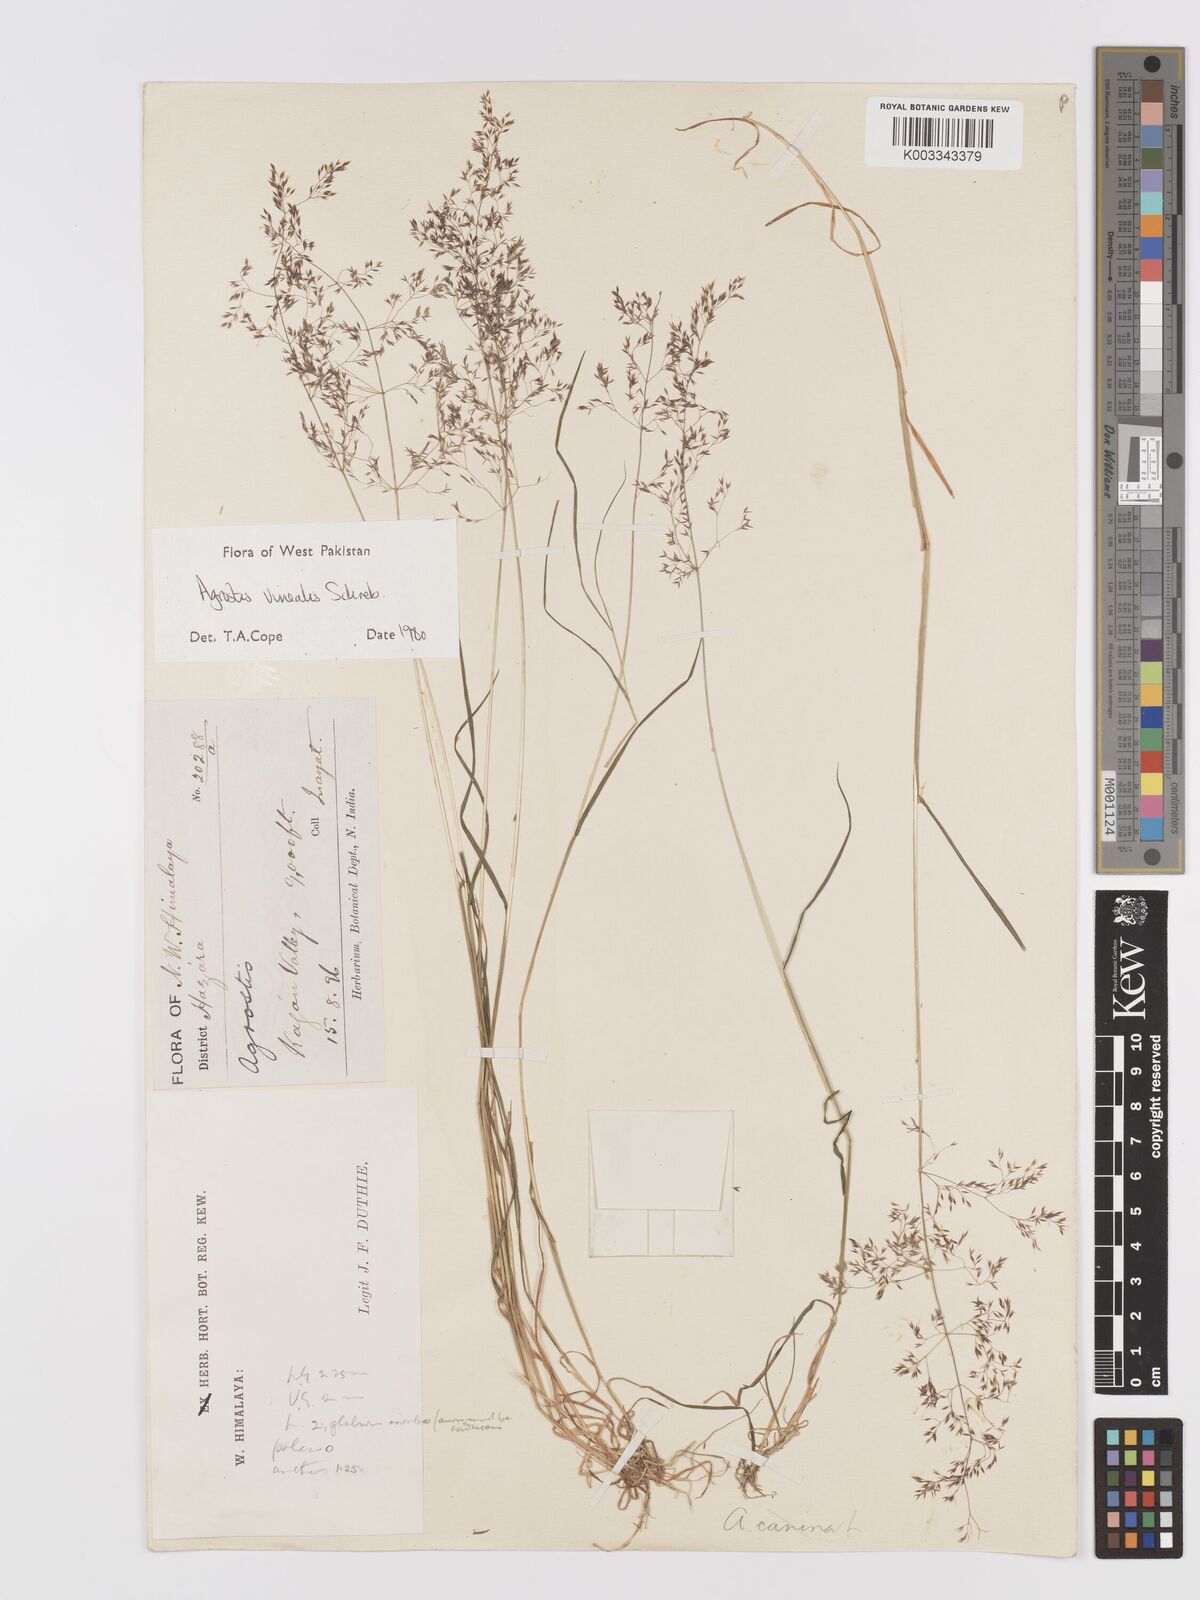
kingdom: Plantae
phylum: Tracheophyta
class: Liliopsida
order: Poales
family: Poaceae
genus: Agrostis
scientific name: Agrostis vinealis
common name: Brown bent
